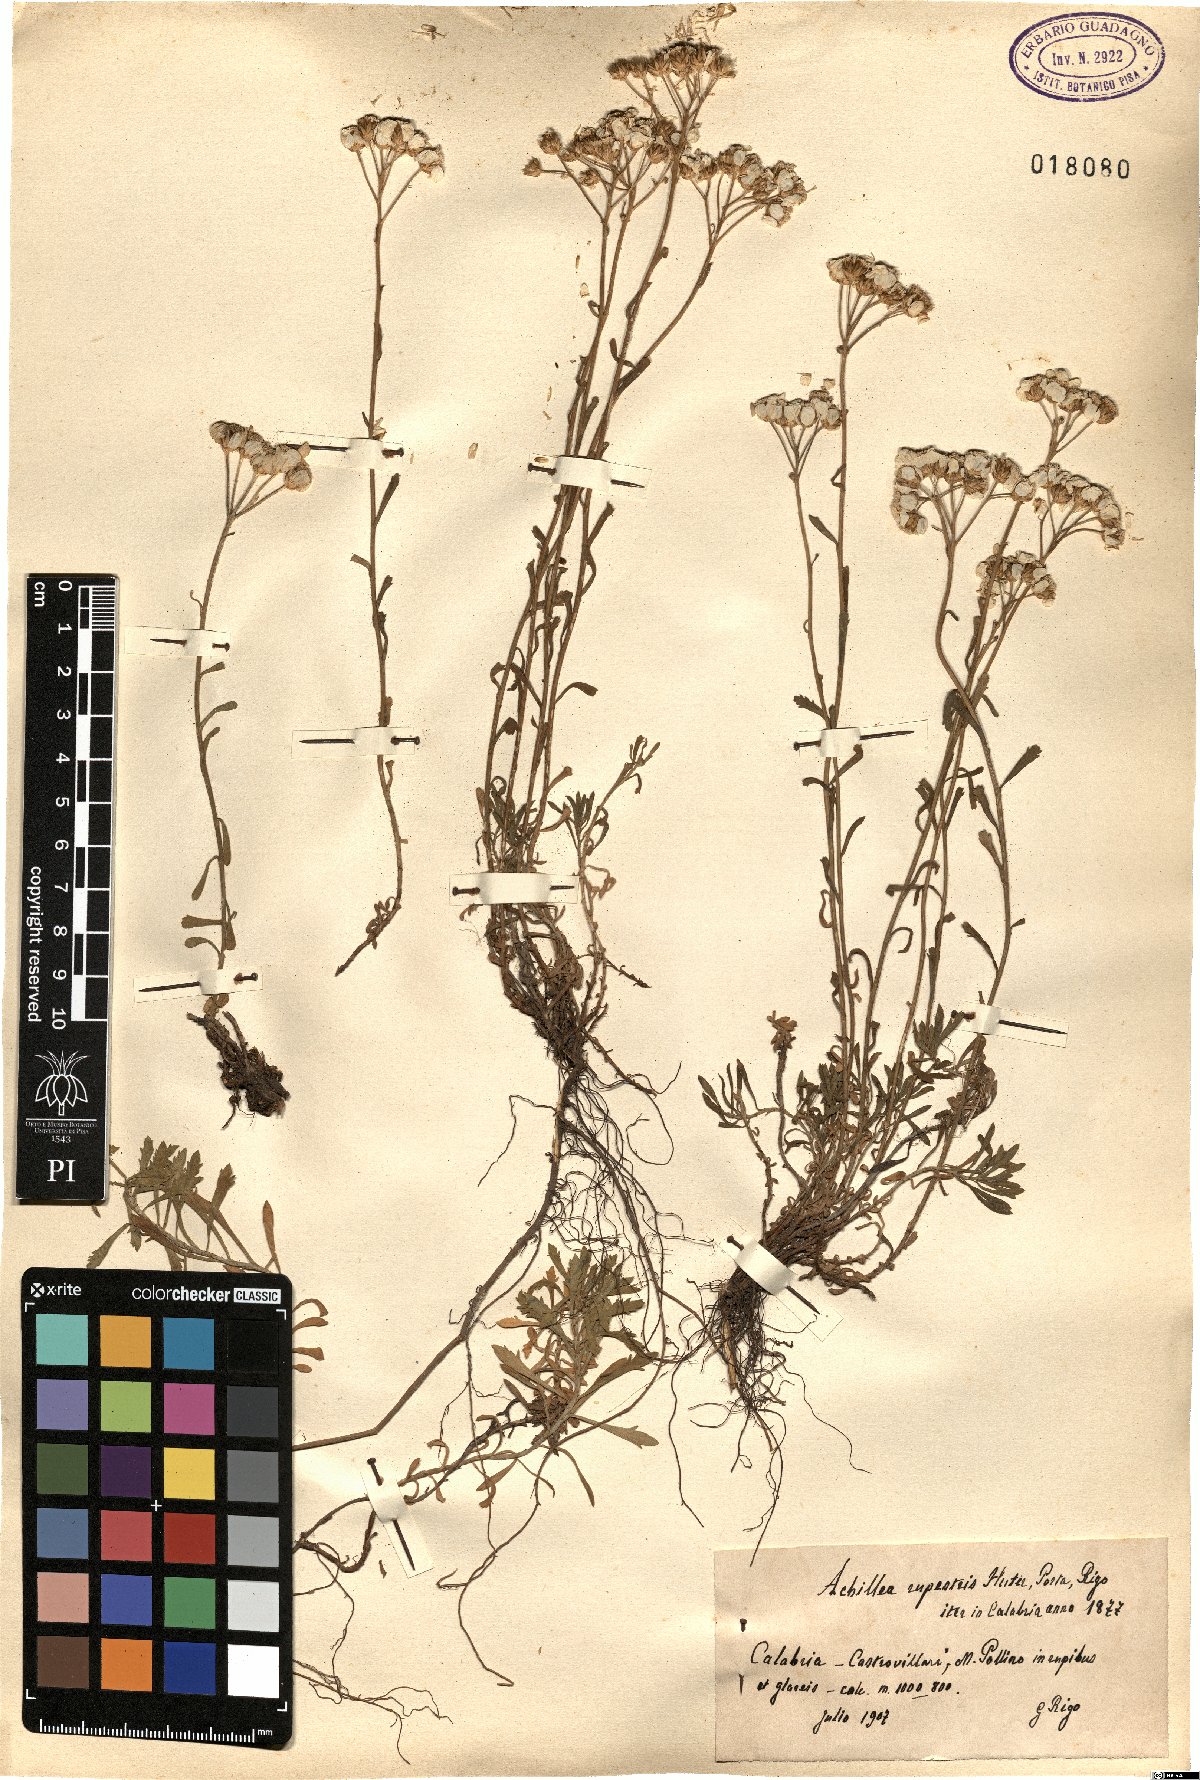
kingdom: Plantae
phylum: Tracheophyta
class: Magnoliopsida
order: Asterales
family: Asteraceae
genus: Achillea
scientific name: Achillea rupestris
